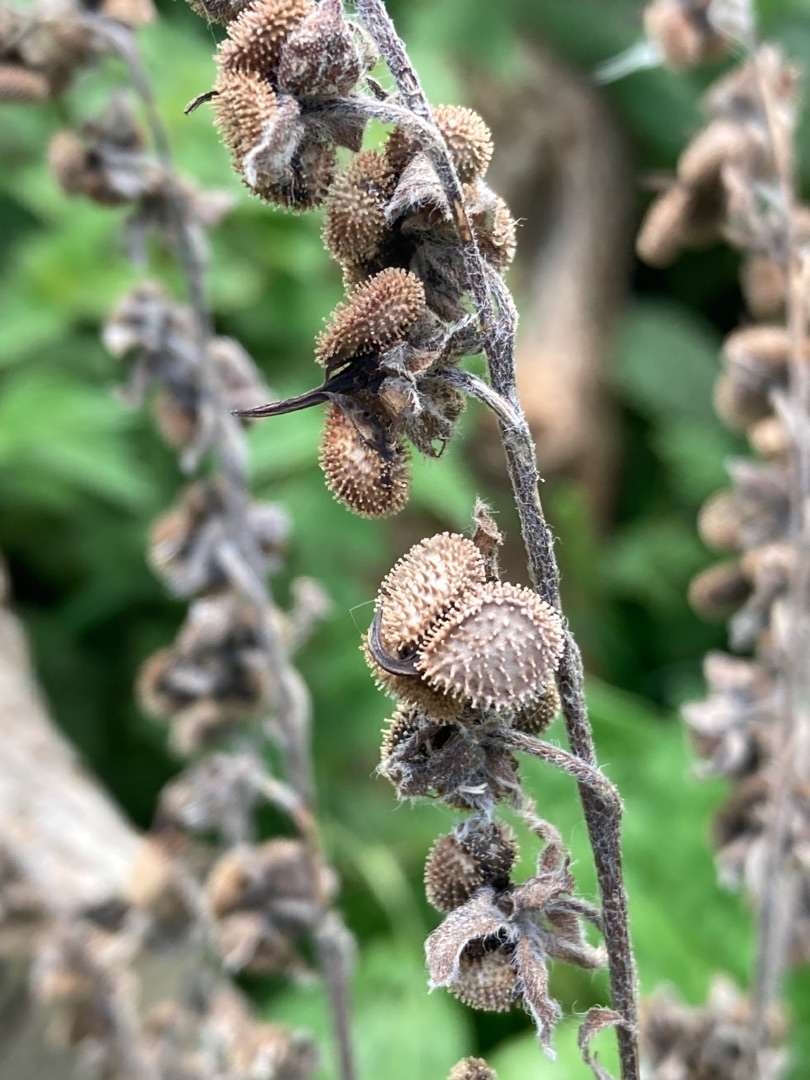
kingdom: Plantae
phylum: Tracheophyta
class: Magnoliopsida
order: Boraginales
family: Boraginaceae
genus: Cynoglossum
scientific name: Cynoglossum officinale
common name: Hundetunge
